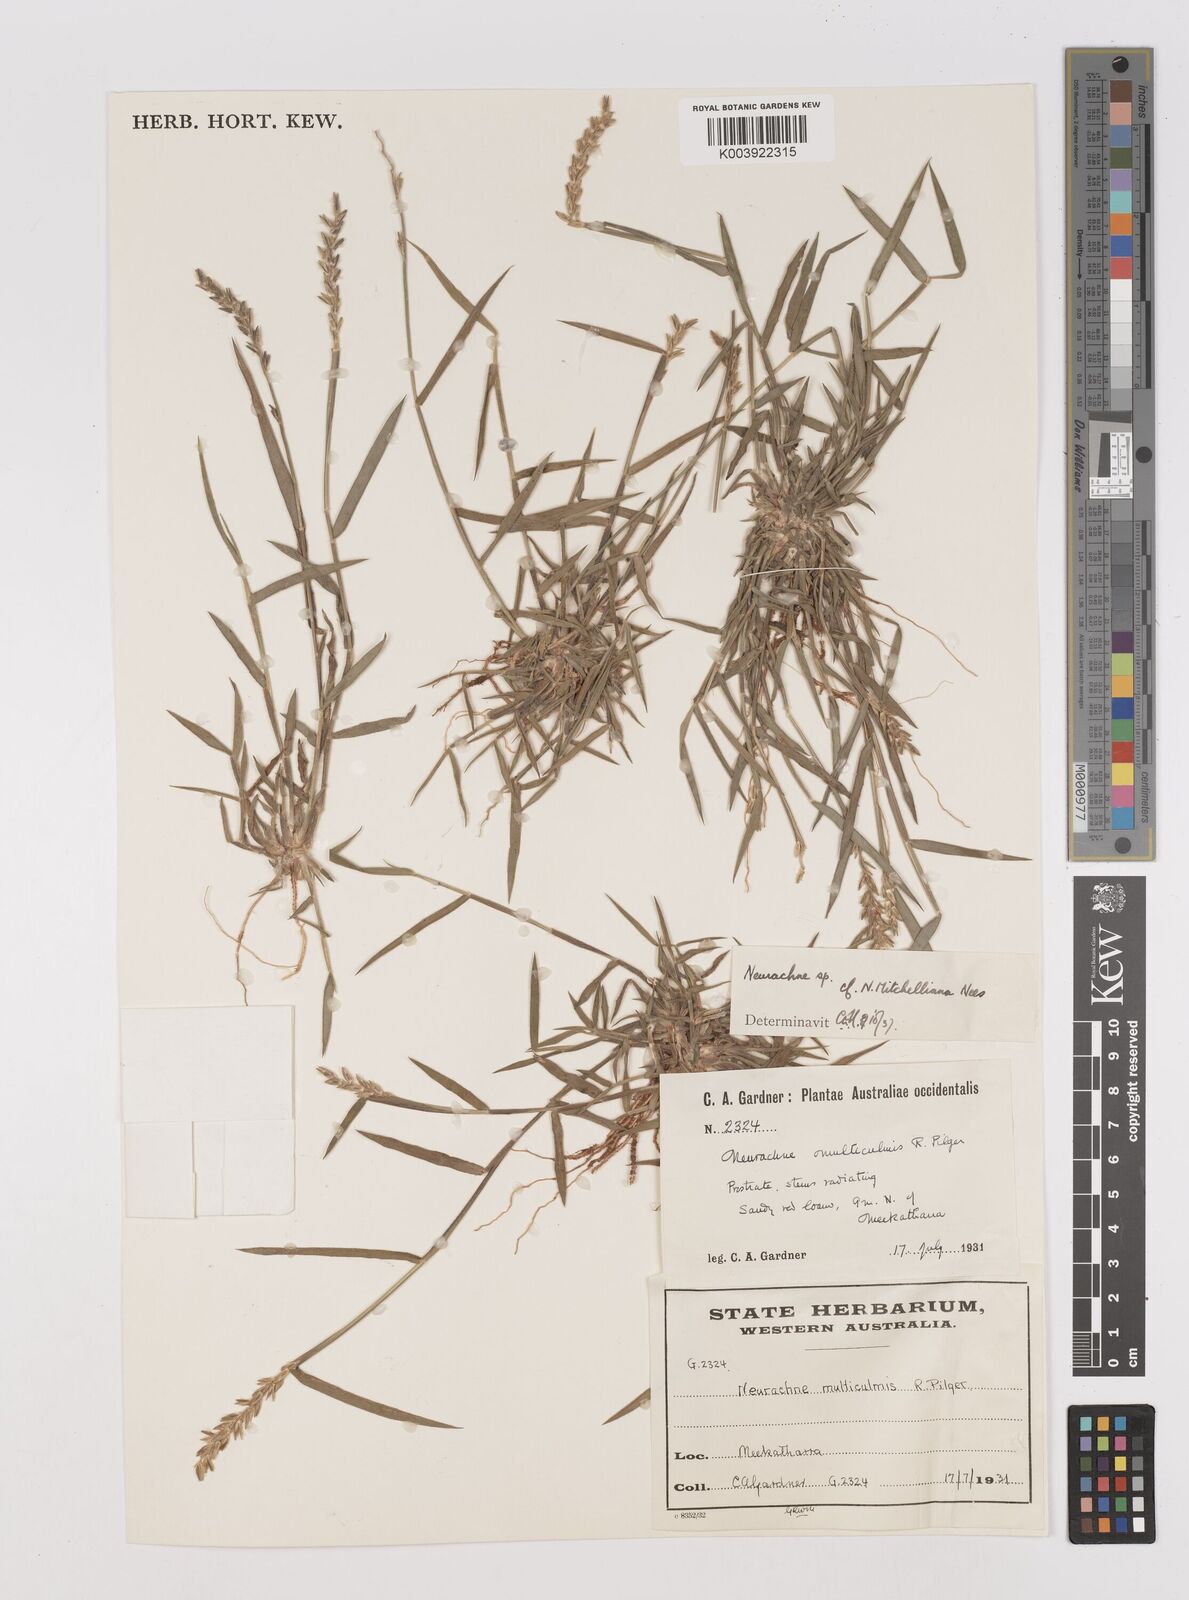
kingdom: Plantae
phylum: Tracheophyta
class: Liliopsida
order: Poales
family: Poaceae
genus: Thyridolepis
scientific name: Thyridolepis mitchelliana
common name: Rock tassel grass
